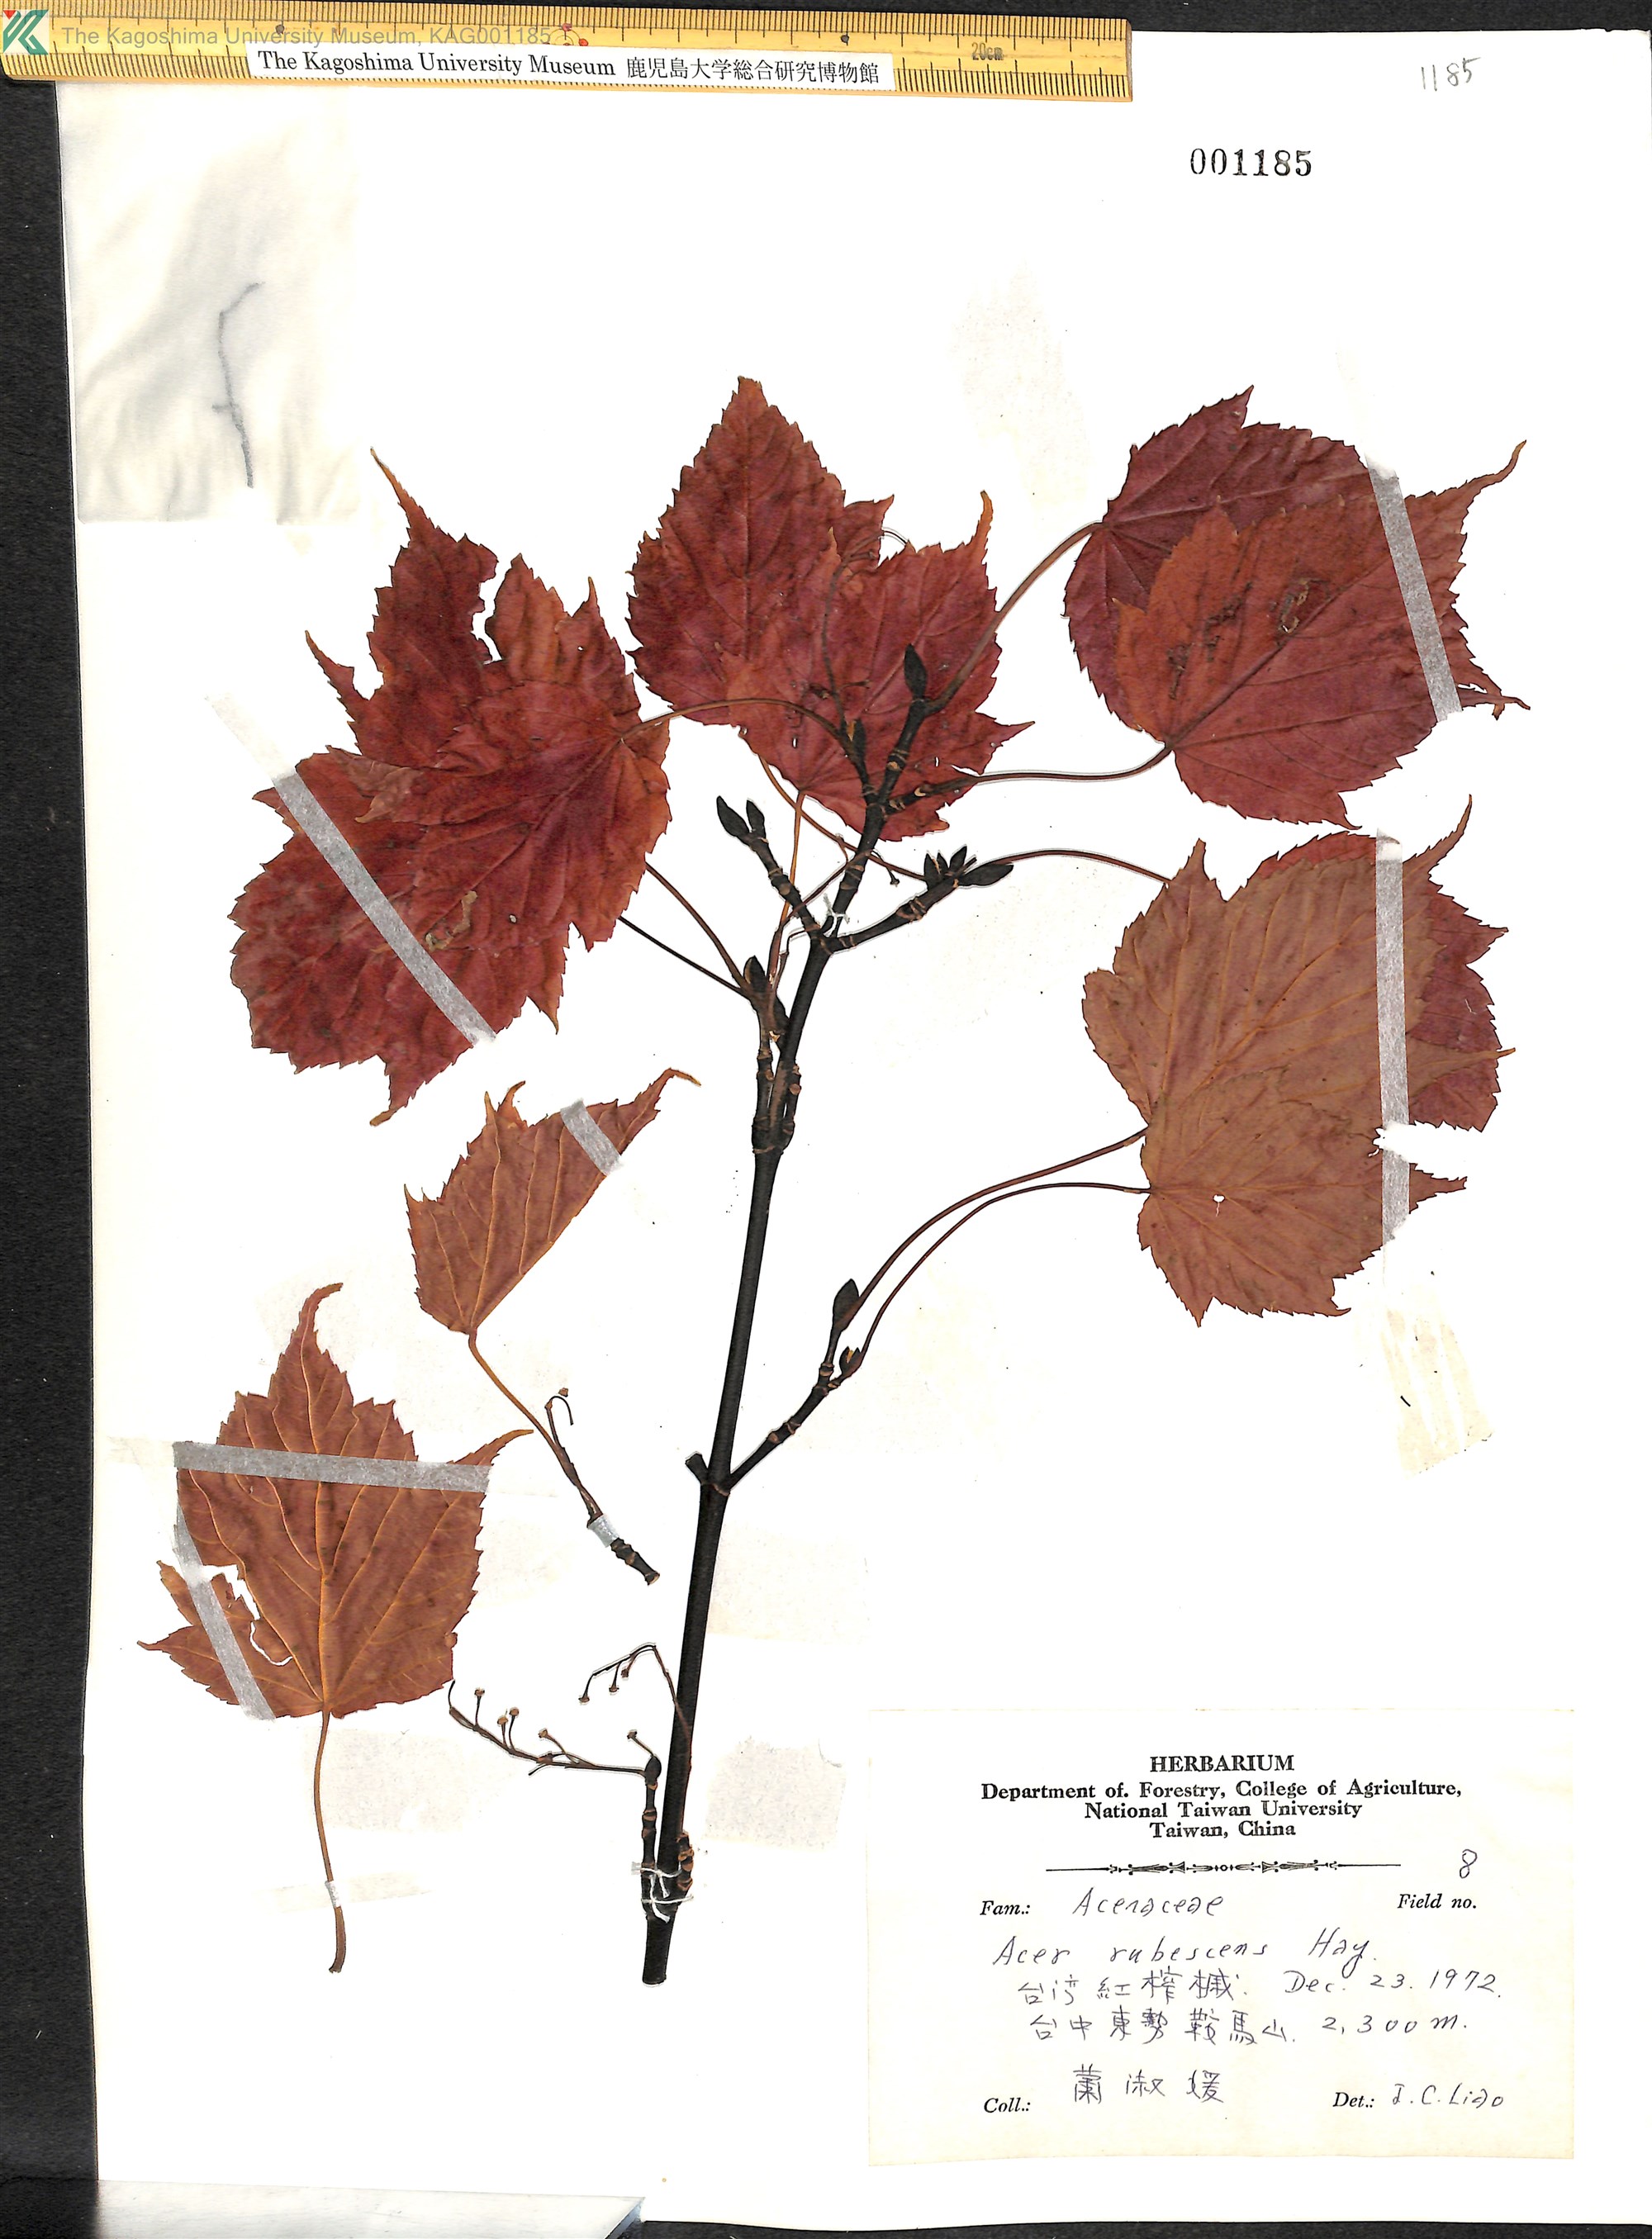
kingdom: Plantae
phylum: Tracheophyta
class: Magnoliopsida
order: Sapindales
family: Sapindaceae
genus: Acer
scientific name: Acer caudatifolium
